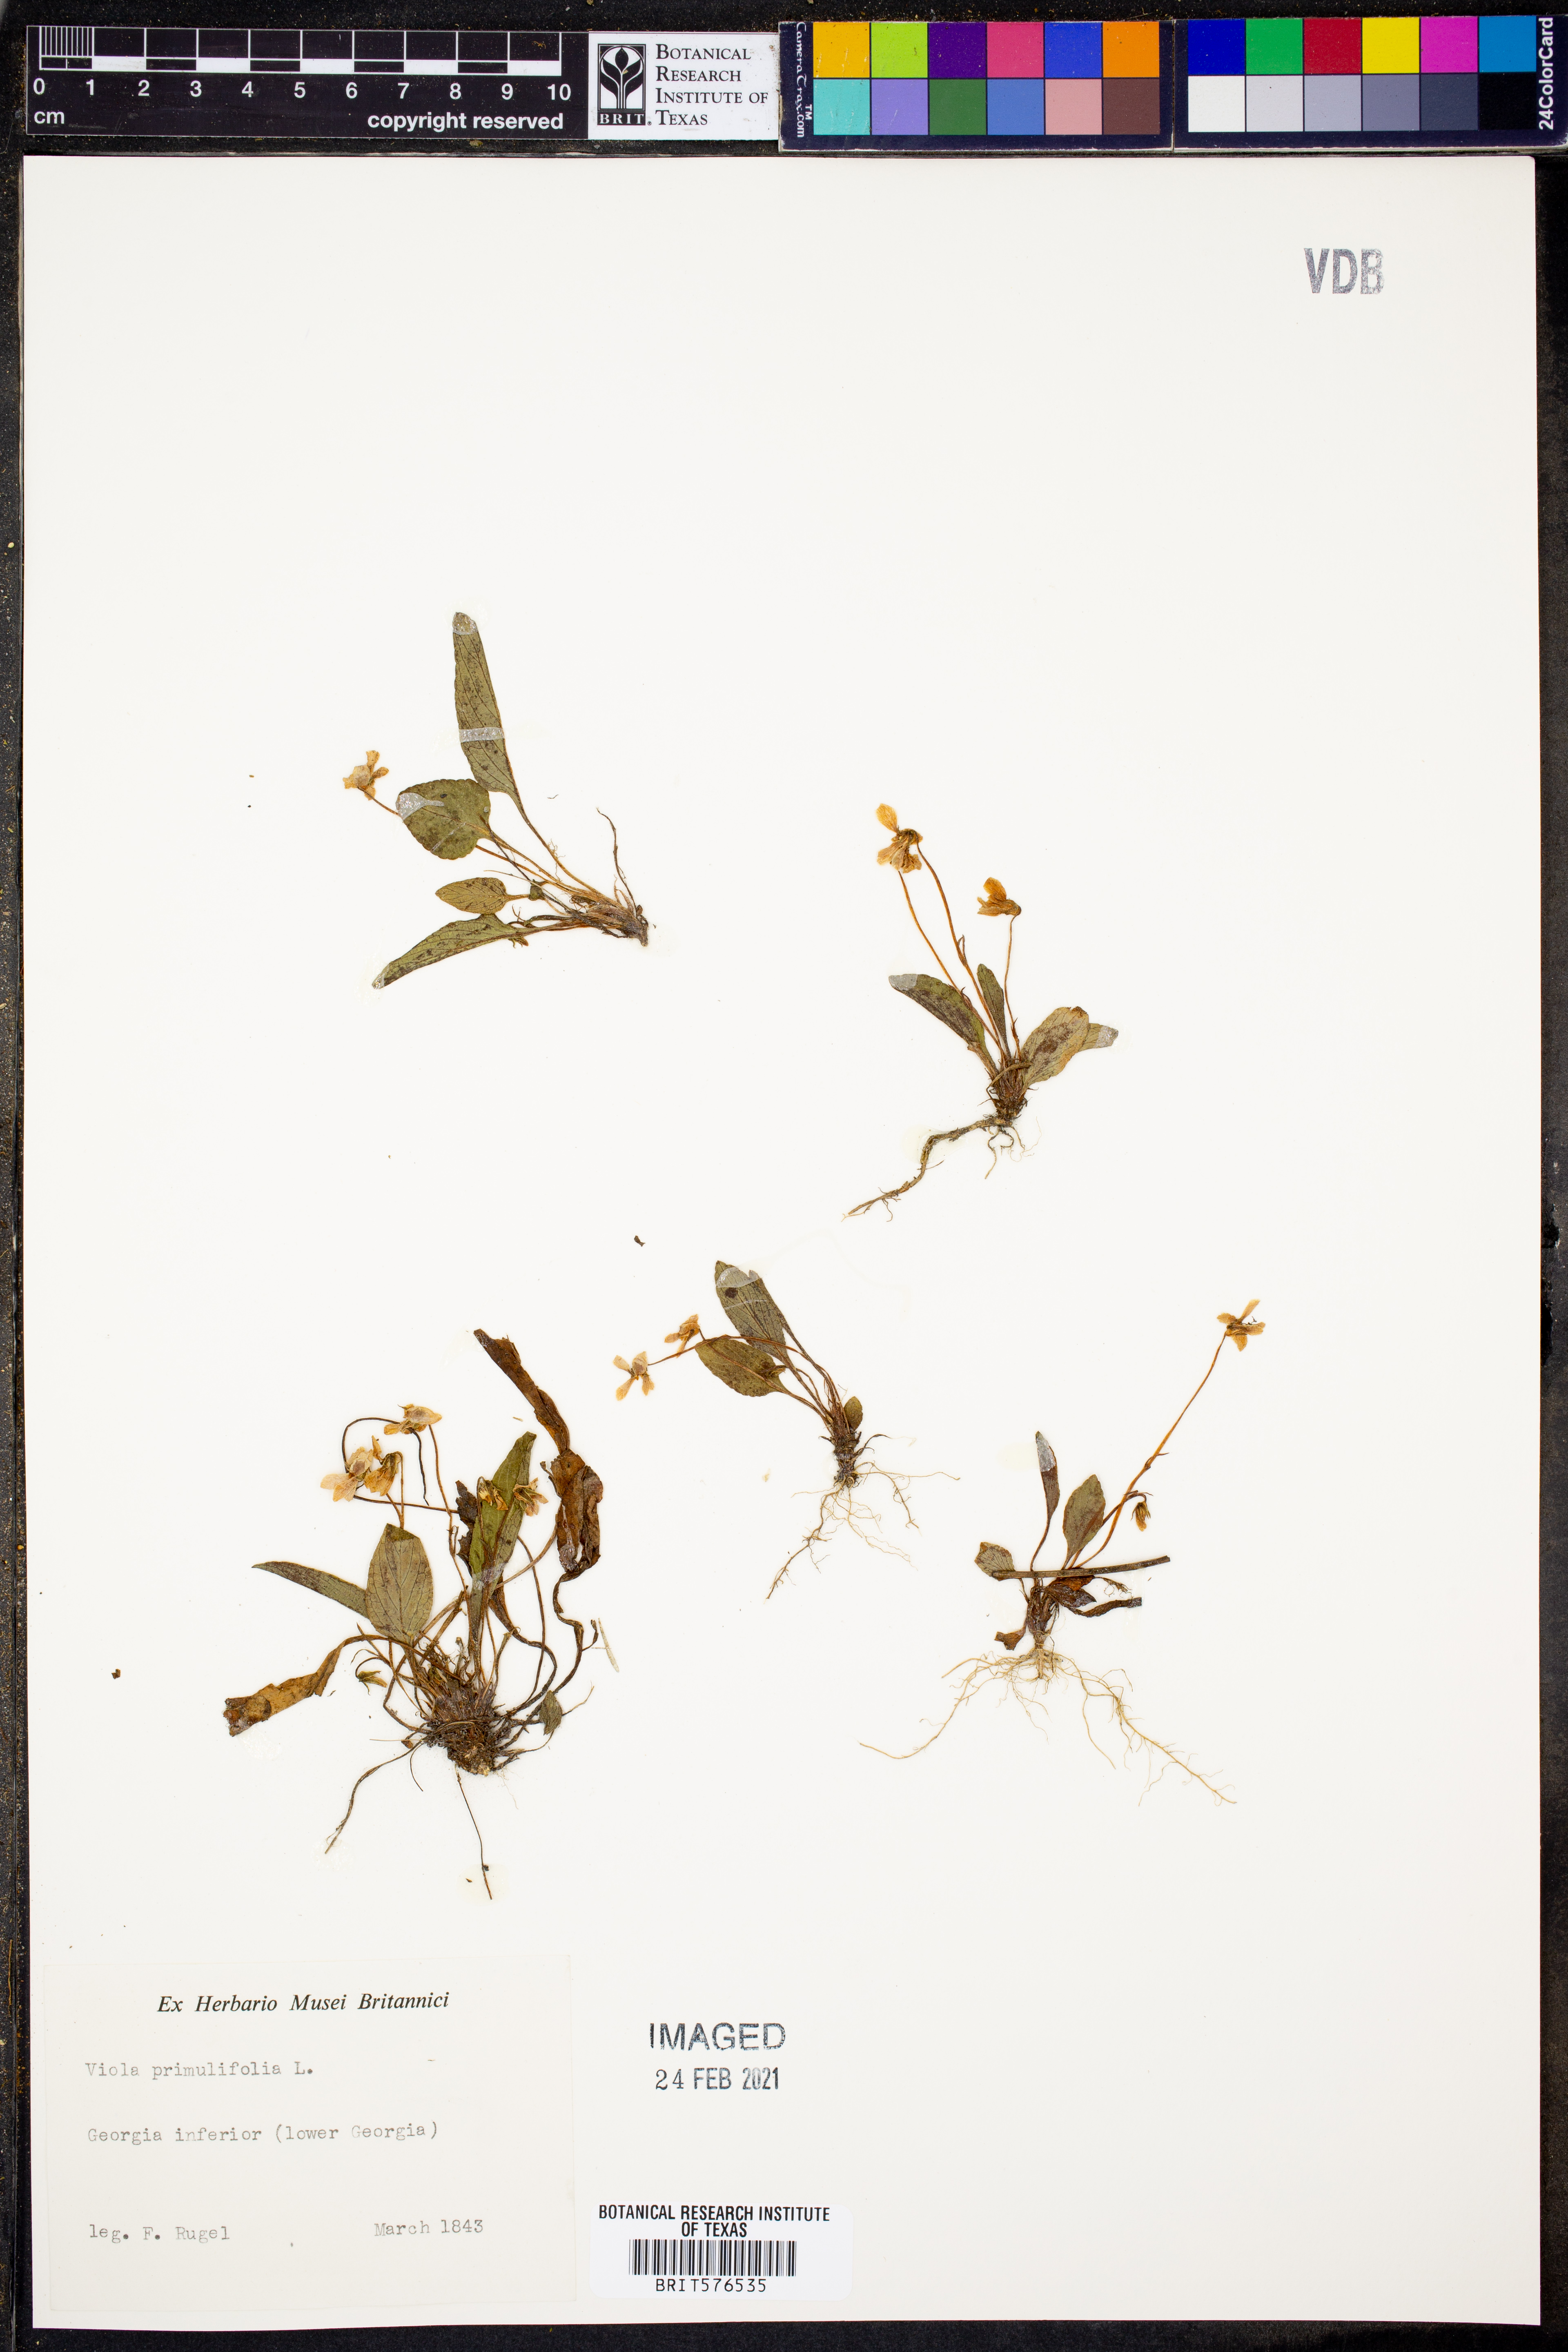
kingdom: Plantae
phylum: Tracheophyta
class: Magnoliopsida
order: Malpighiales
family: Violaceae
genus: Viola
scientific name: Viola primulifolia
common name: Primrose-leaf violet
